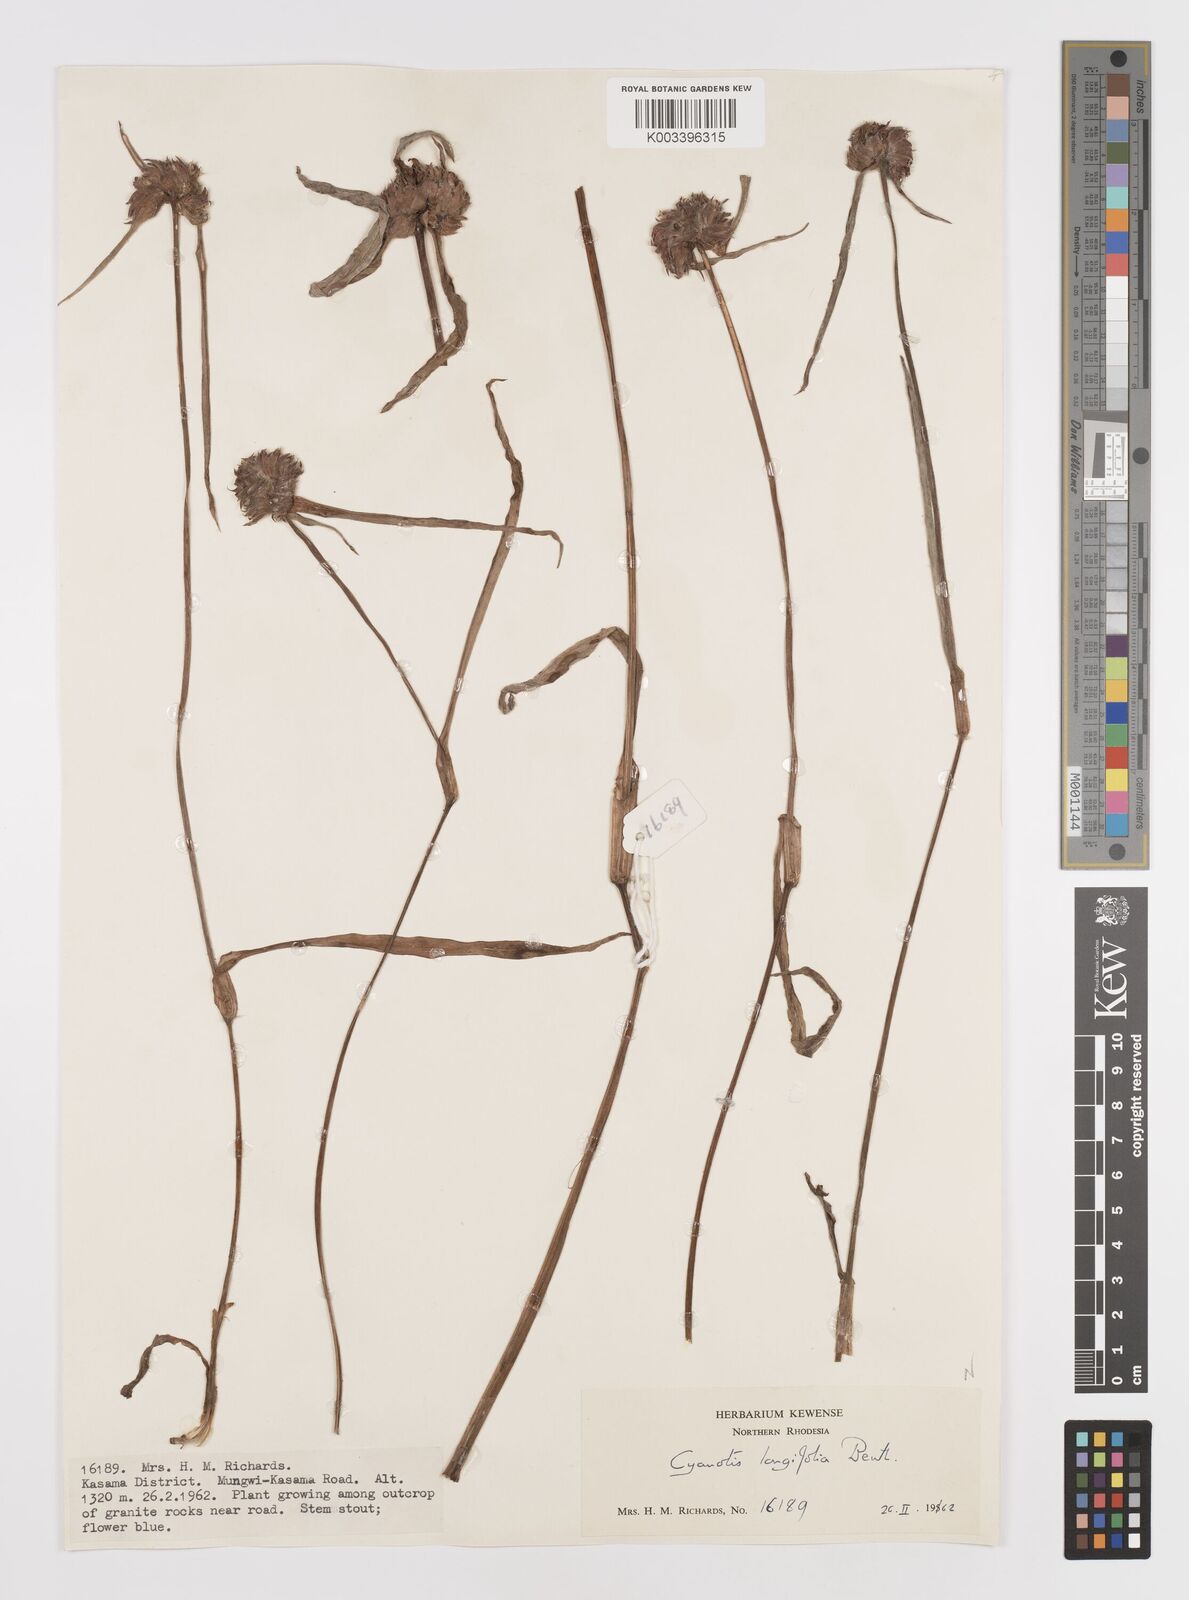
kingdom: Plantae
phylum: Tracheophyta
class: Liliopsida
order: Commelinales
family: Commelinaceae
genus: Cyanotis
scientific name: Cyanotis longifolia
